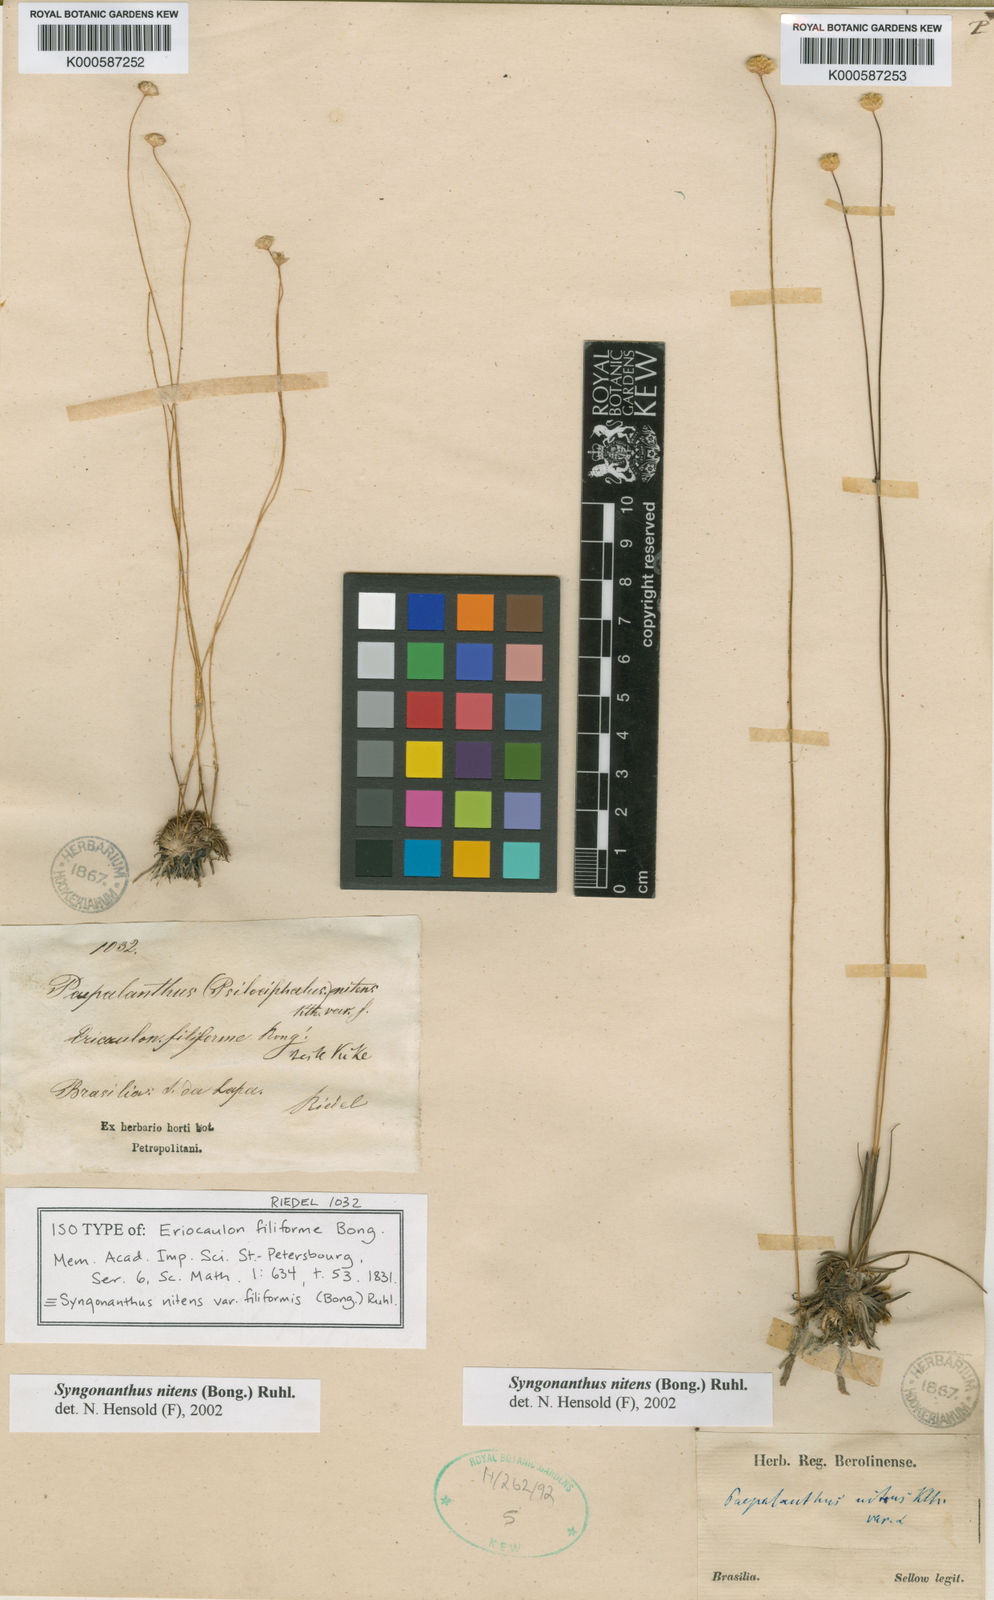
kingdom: Plantae
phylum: Tracheophyta
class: Liliopsida
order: Poales
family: Eriocaulaceae
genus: Syngonanthus
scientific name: Syngonanthus nitens
